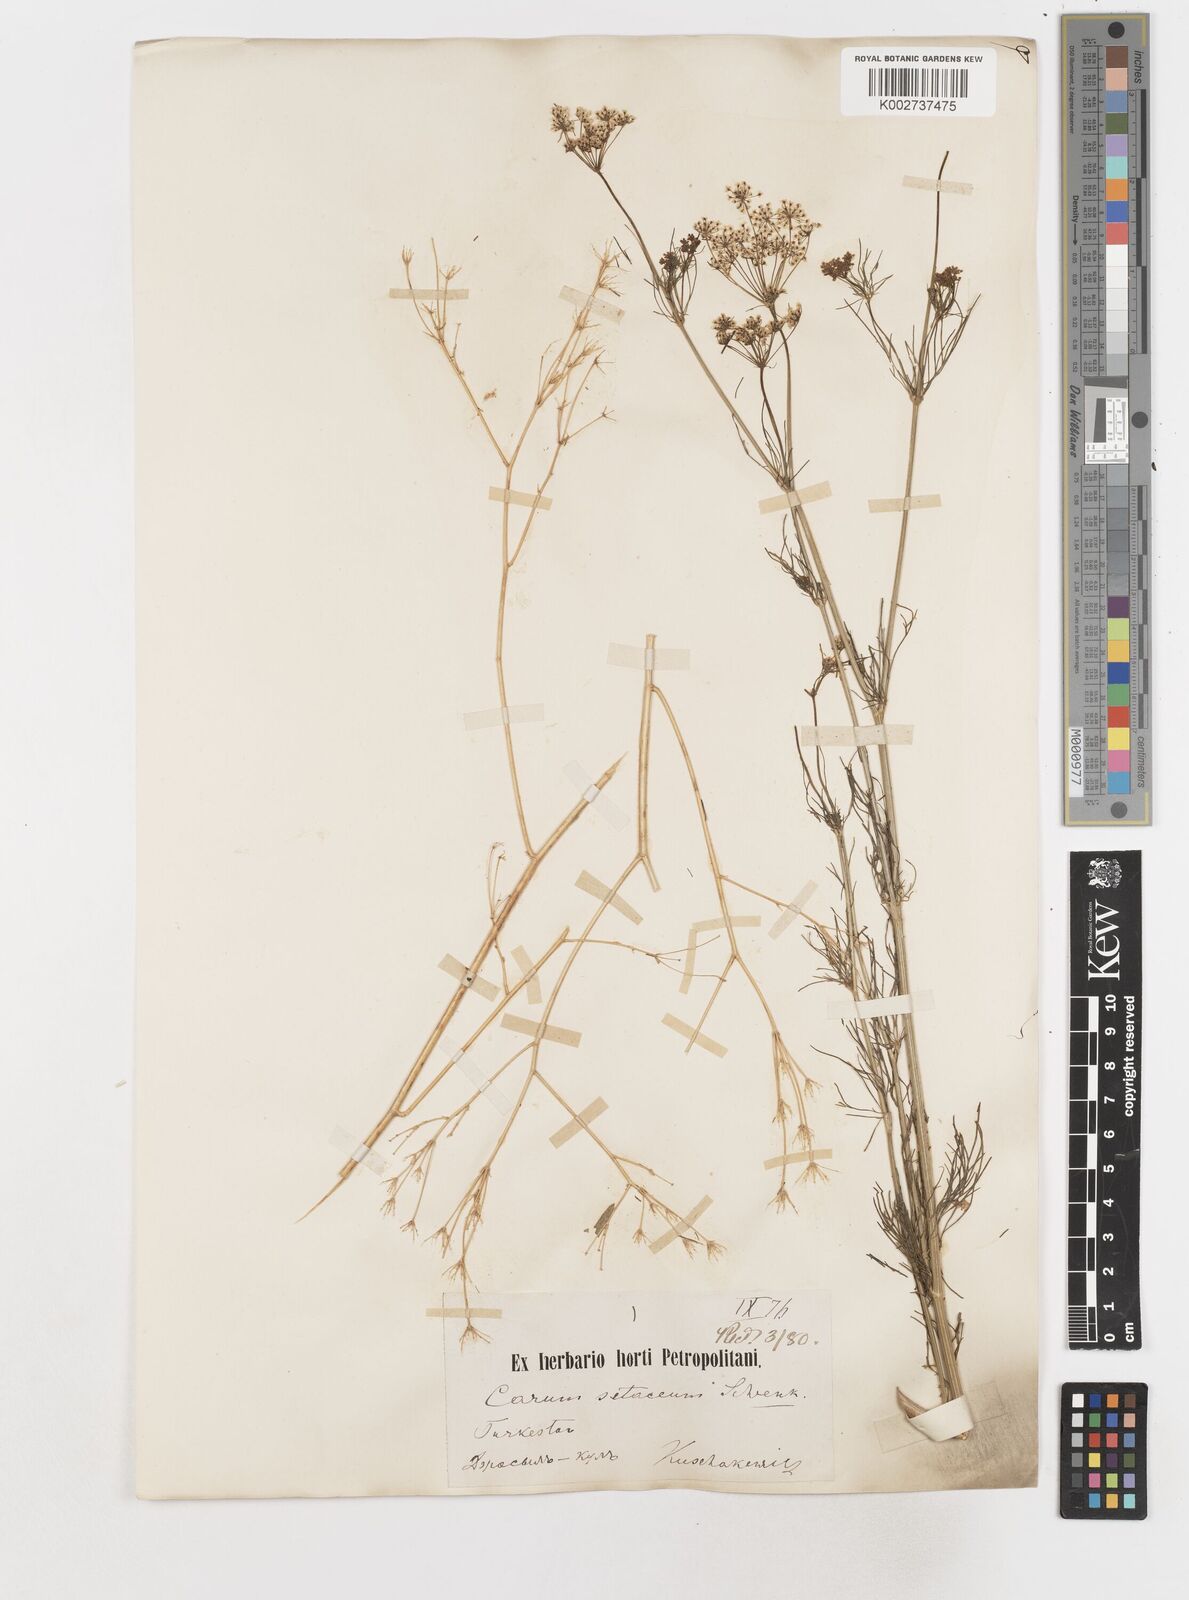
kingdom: Plantae
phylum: Tracheophyta
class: Magnoliopsida
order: Apiales
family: Apiaceae
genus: Scaligeria
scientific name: Scaligeria napiformis
